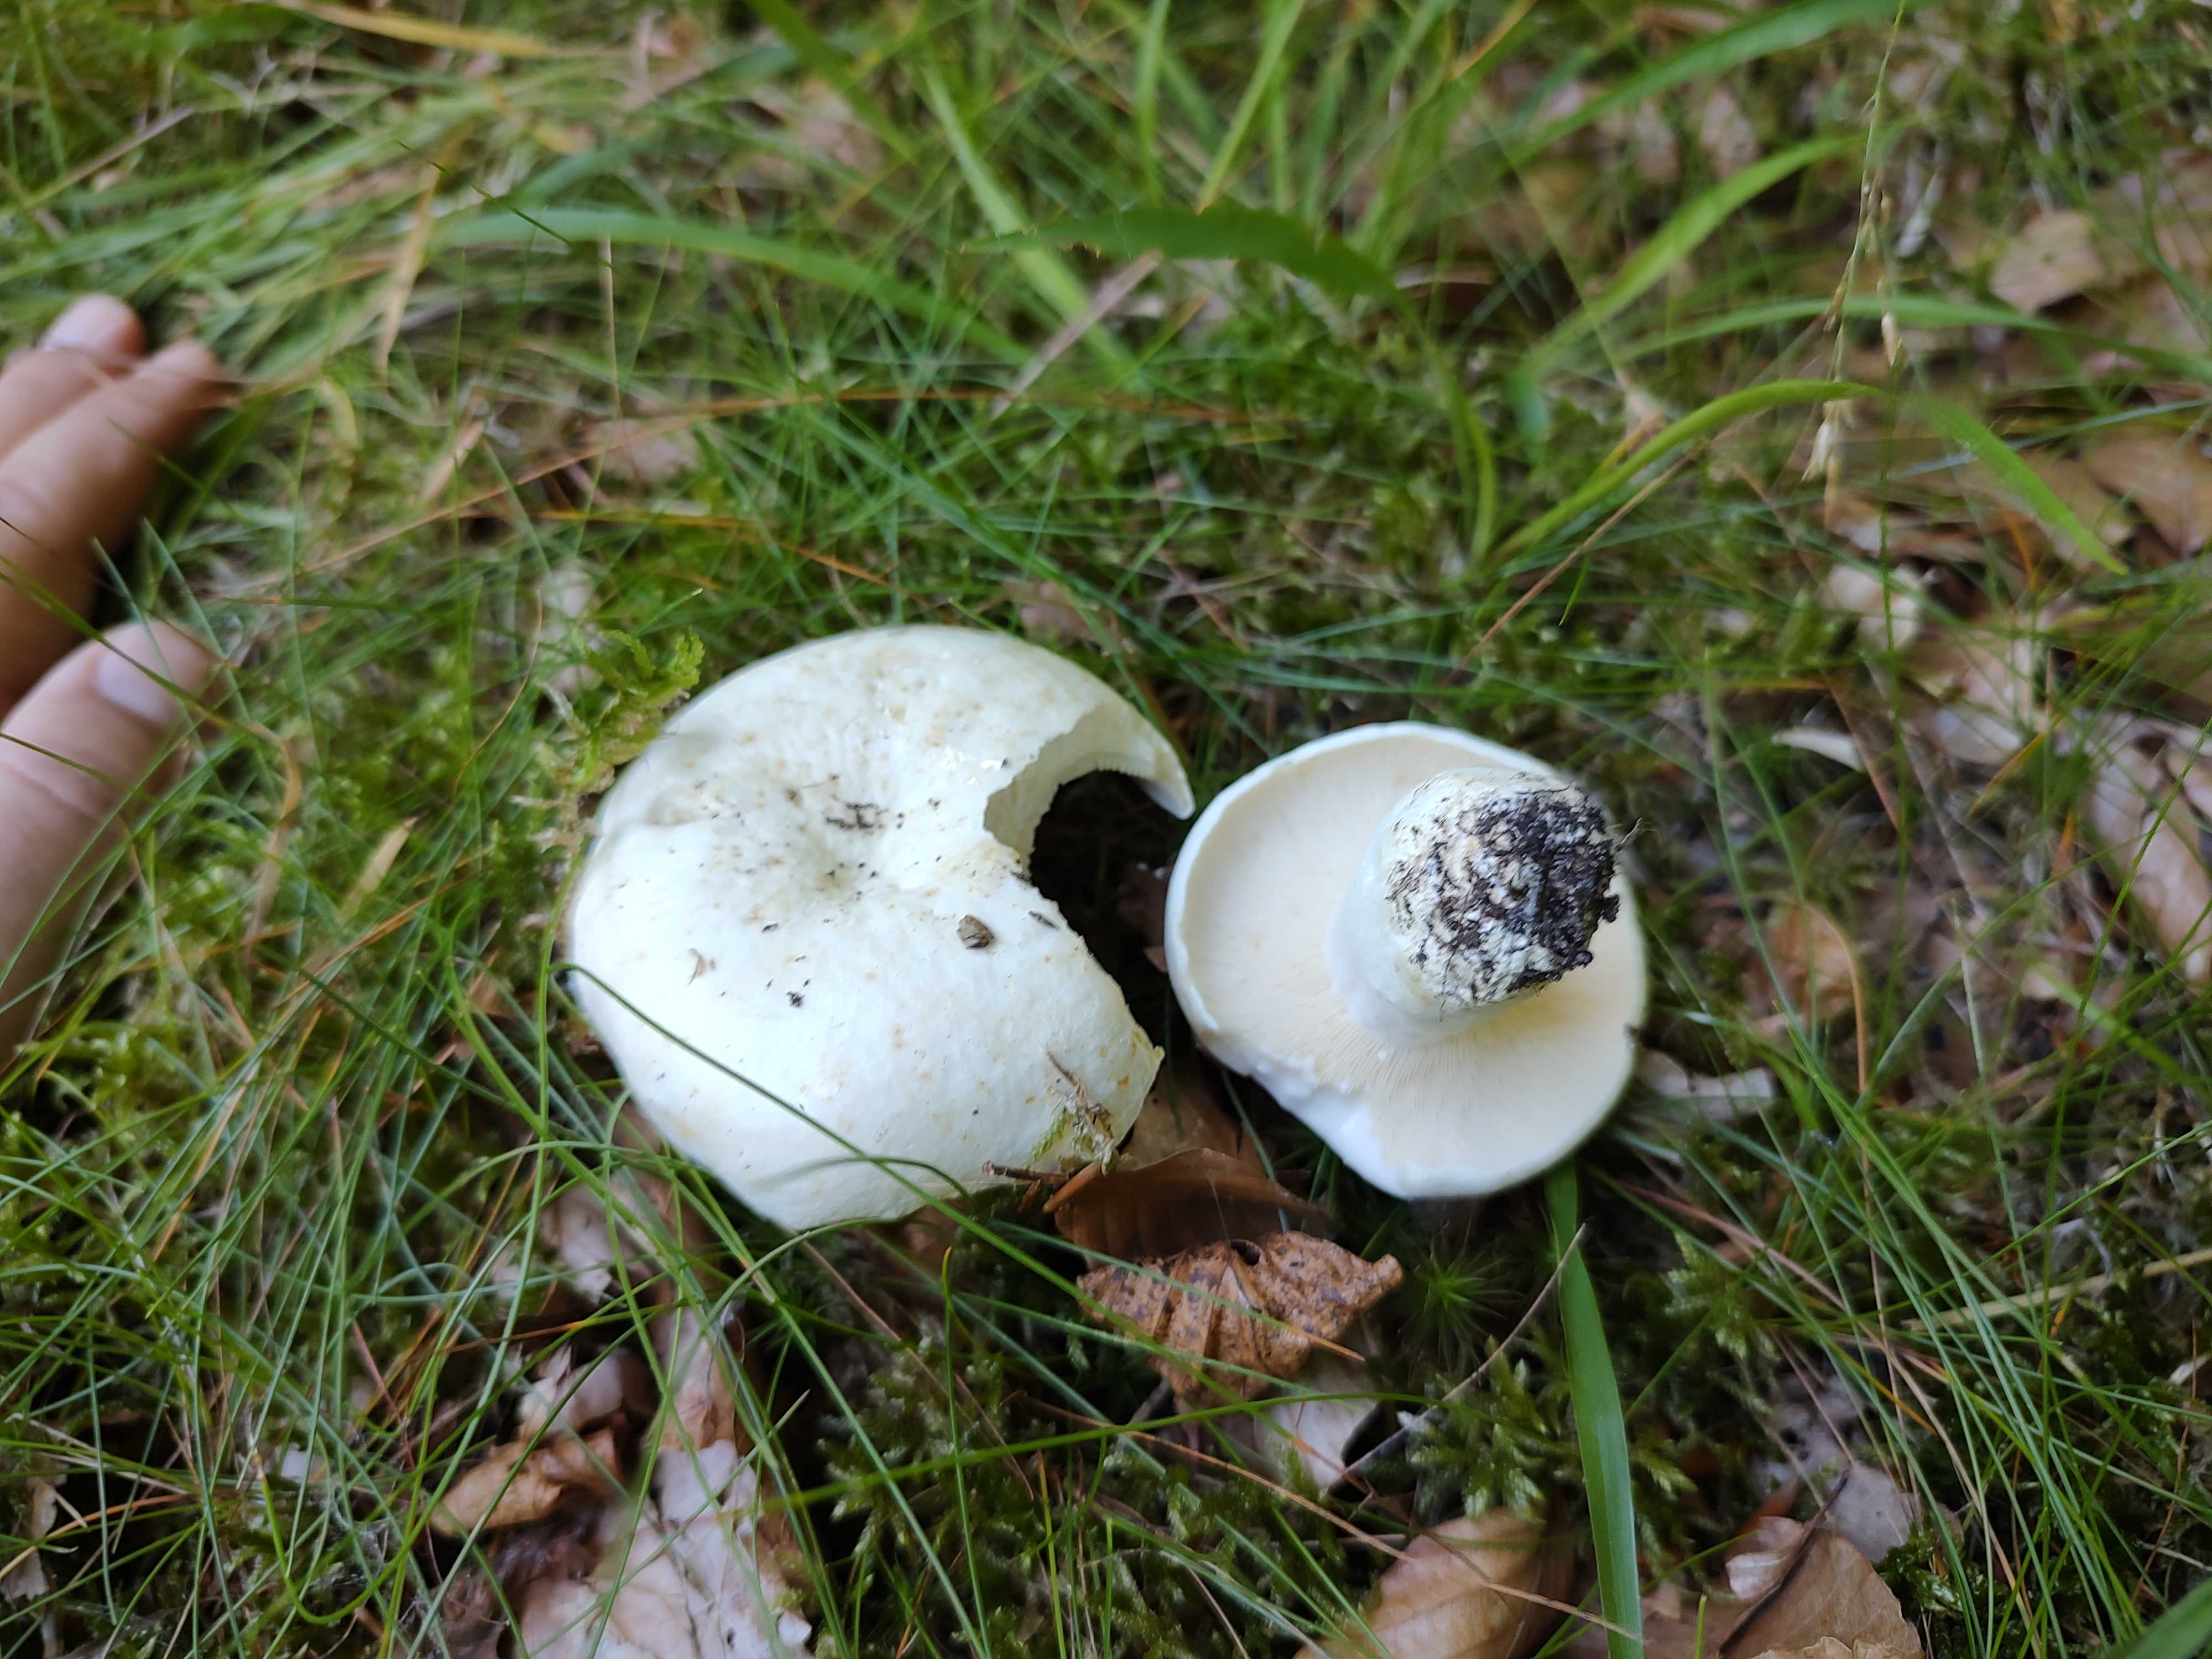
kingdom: Fungi
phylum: Basidiomycota
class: Agaricomycetes
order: Russulales
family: Russulaceae
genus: Lactifluus
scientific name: Lactifluus
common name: mælkehat
